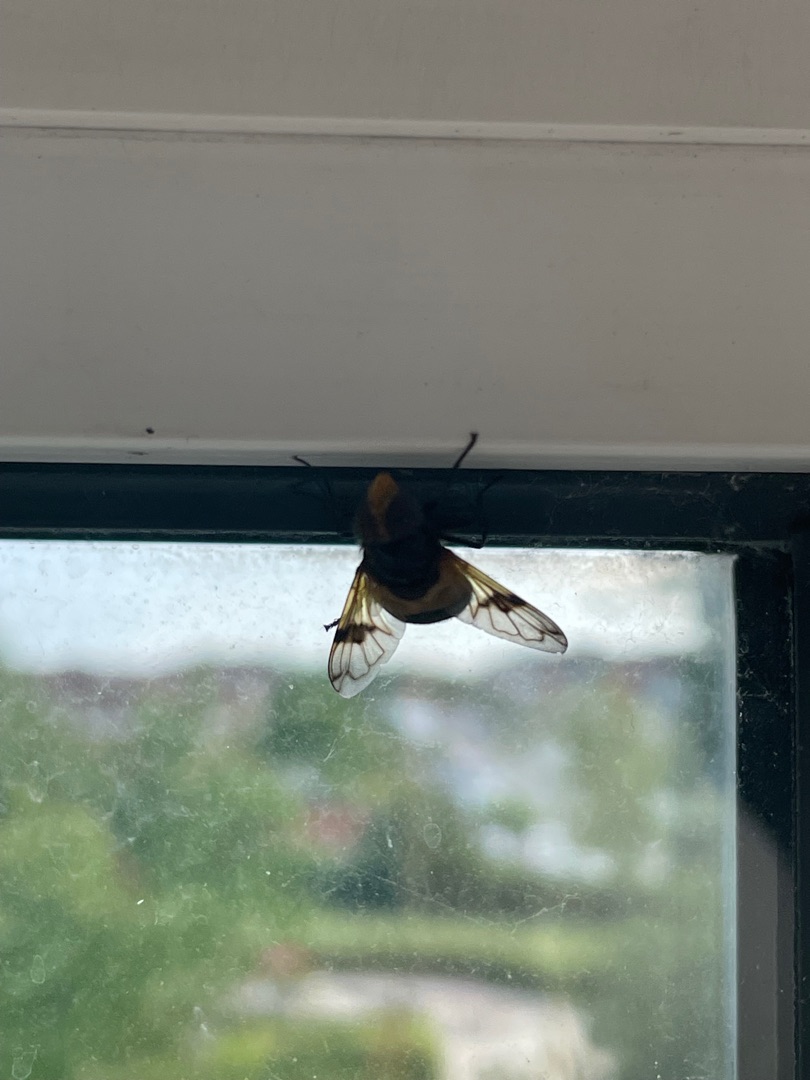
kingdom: Animalia
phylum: Arthropoda
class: Insecta
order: Diptera
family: Syrphidae
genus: Volucella
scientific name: Volucella pellucens
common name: Hvidbåndet humlesvirreflue
